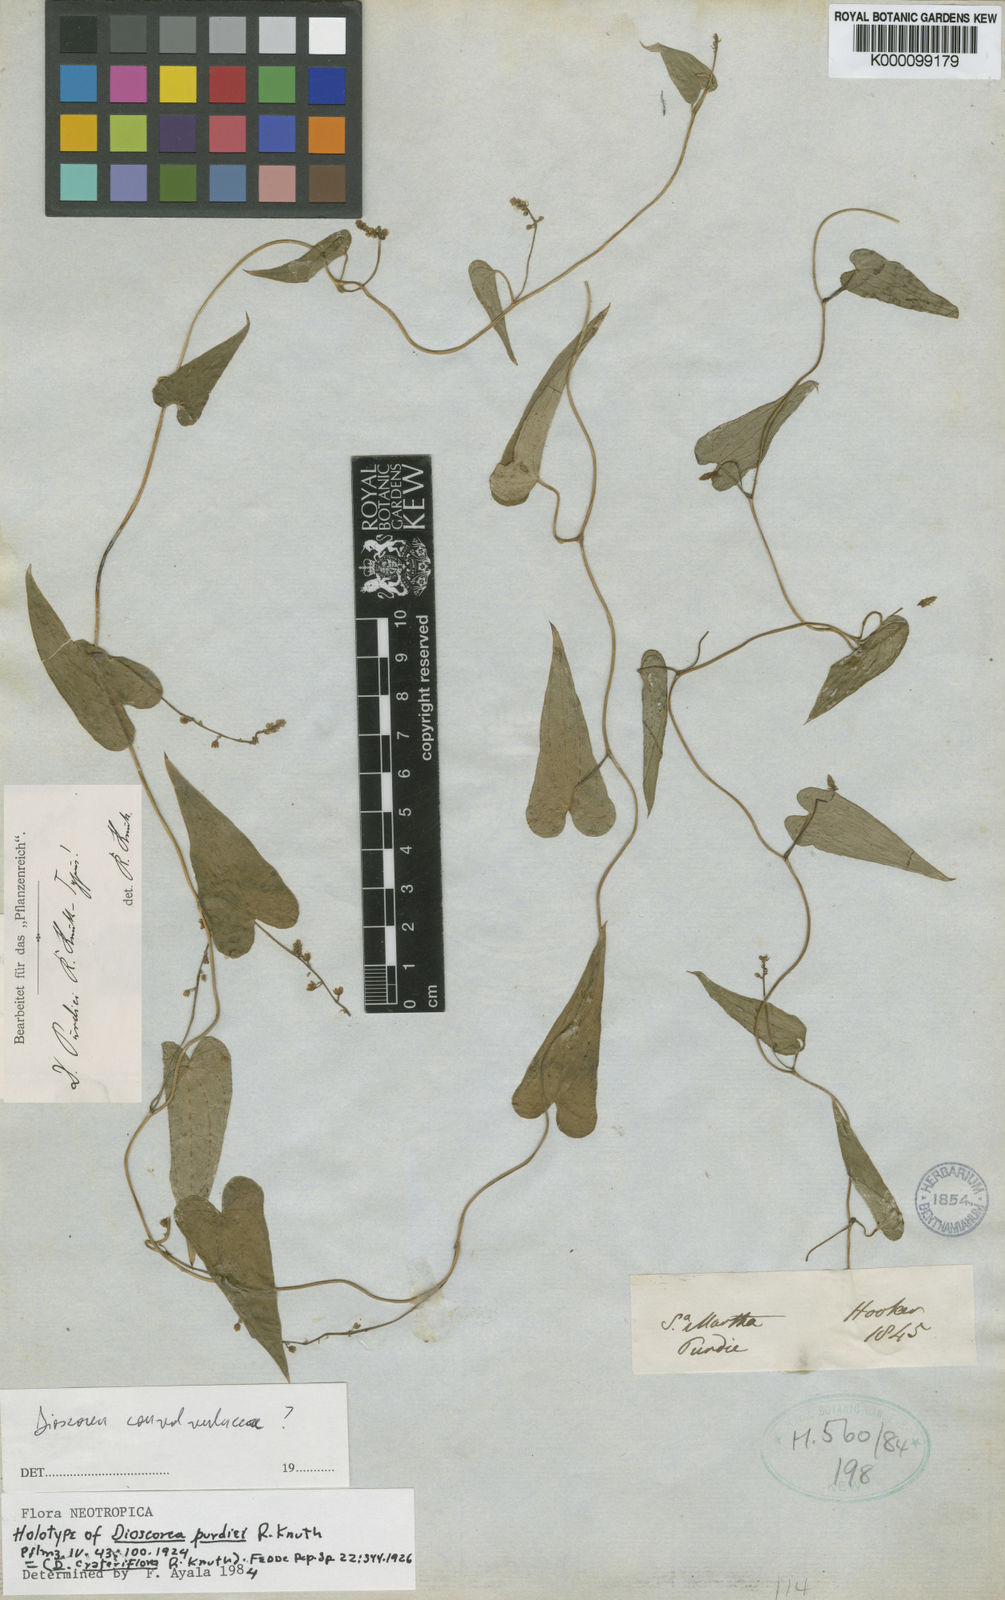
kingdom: Plantae
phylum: Tracheophyta
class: Liliopsida
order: Dioscoreales
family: Dioscoreaceae
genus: Dioscorea
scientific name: Dioscorea purdiei
